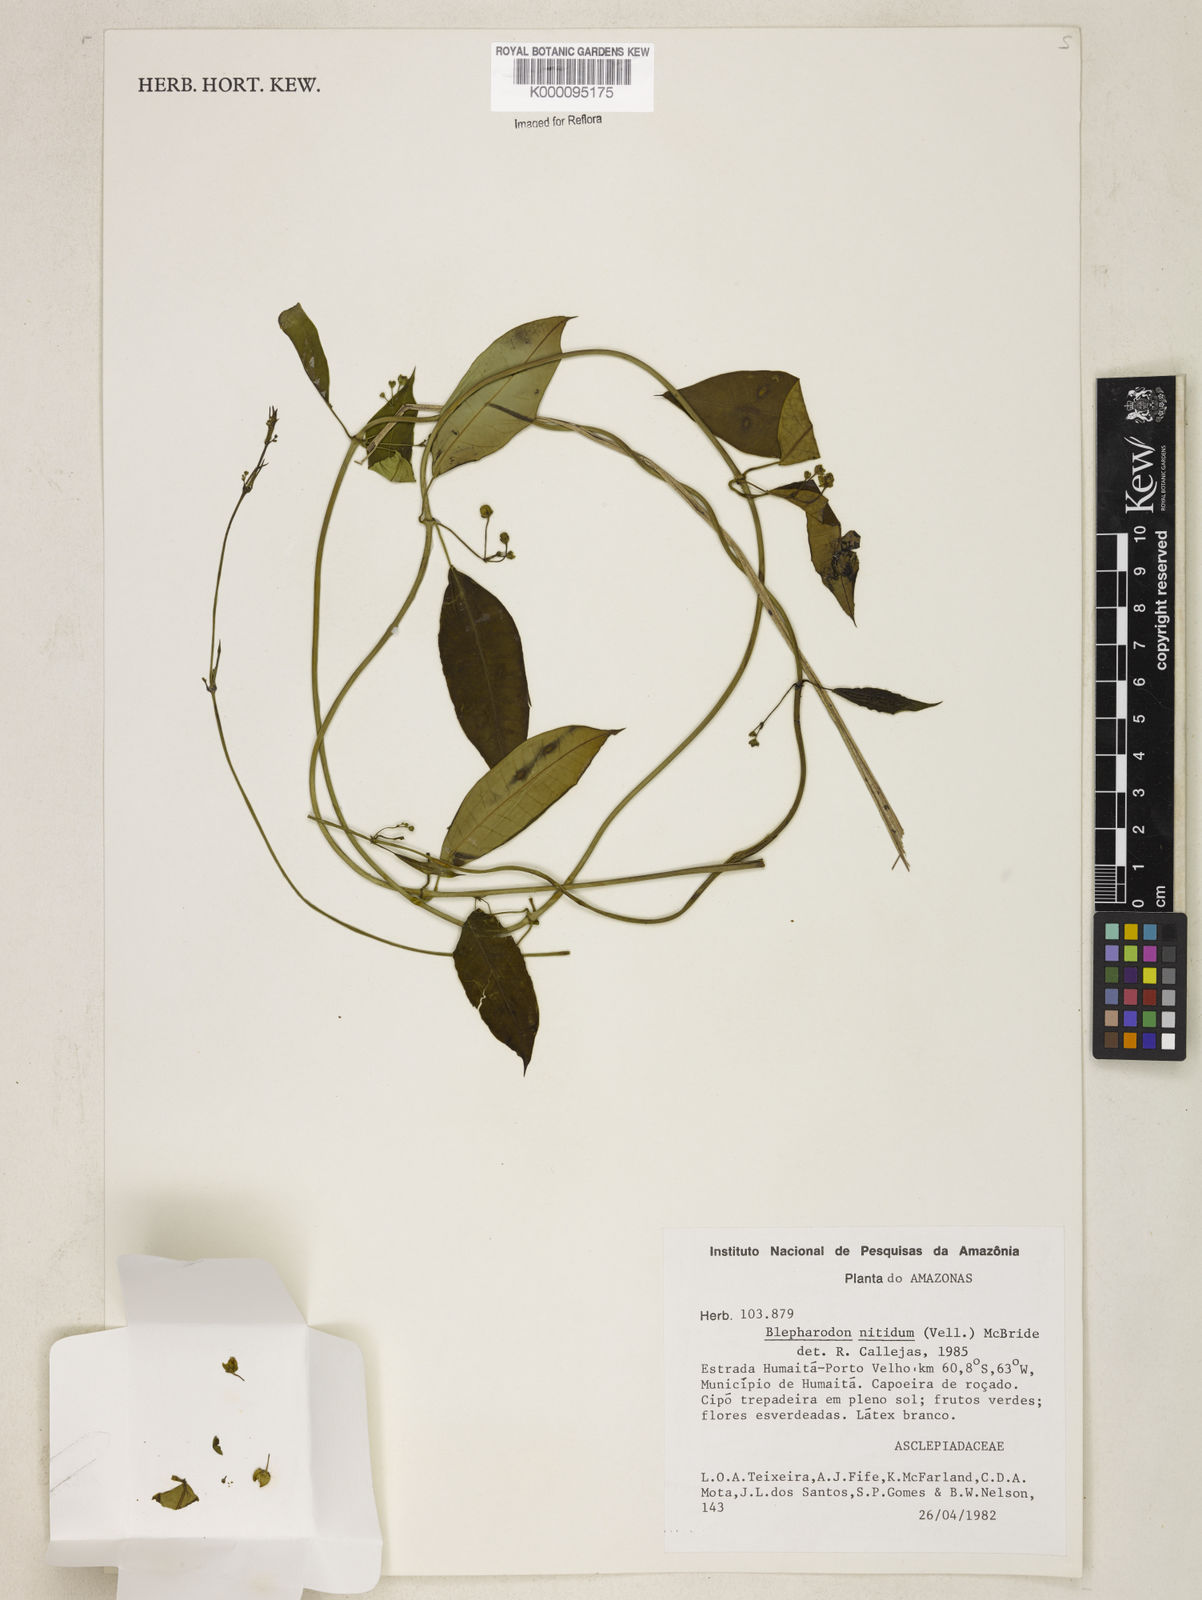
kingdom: Plantae
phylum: Tracheophyta
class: Magnoliopsida
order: Gentianales
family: Apocynaceae
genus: Blepharodon
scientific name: Blepharodon pictum
